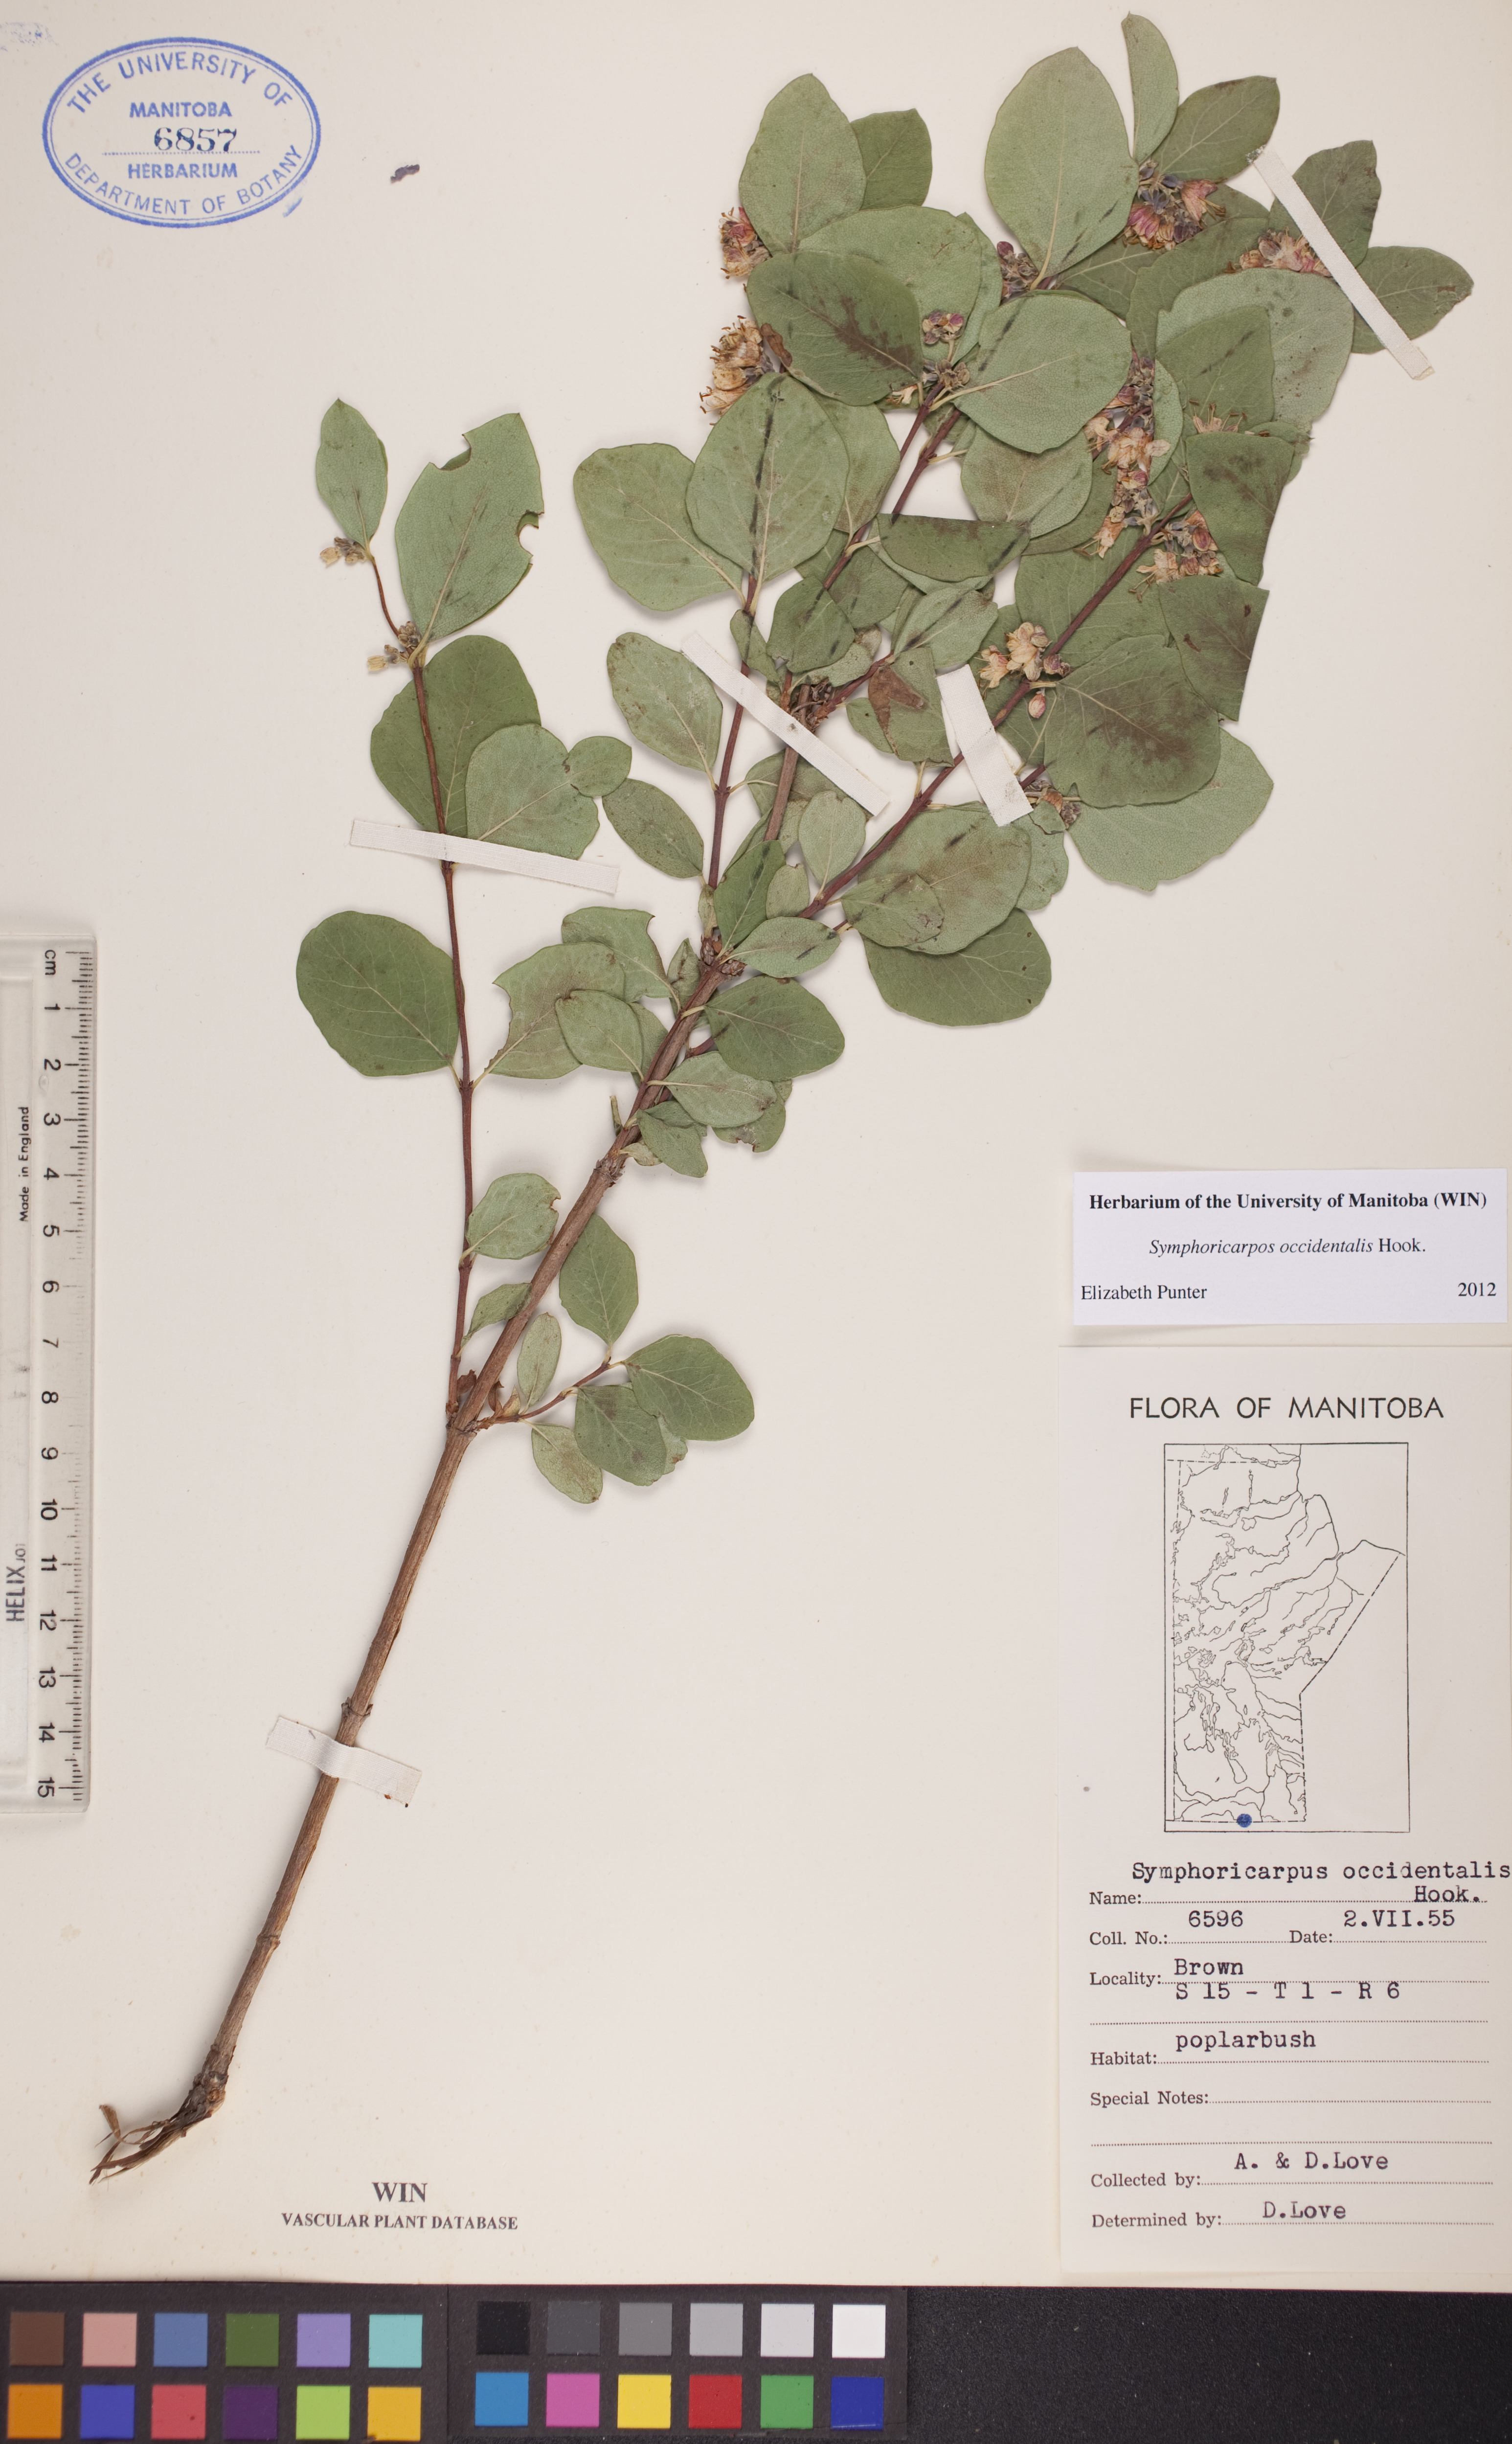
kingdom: Plantae
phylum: Tracheophyta
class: Magnoliopsida
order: Dipsacales
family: Caprifoliaceae
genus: Symphoricarpos
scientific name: Symphoricarpos occidentalis
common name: Wolfberry
